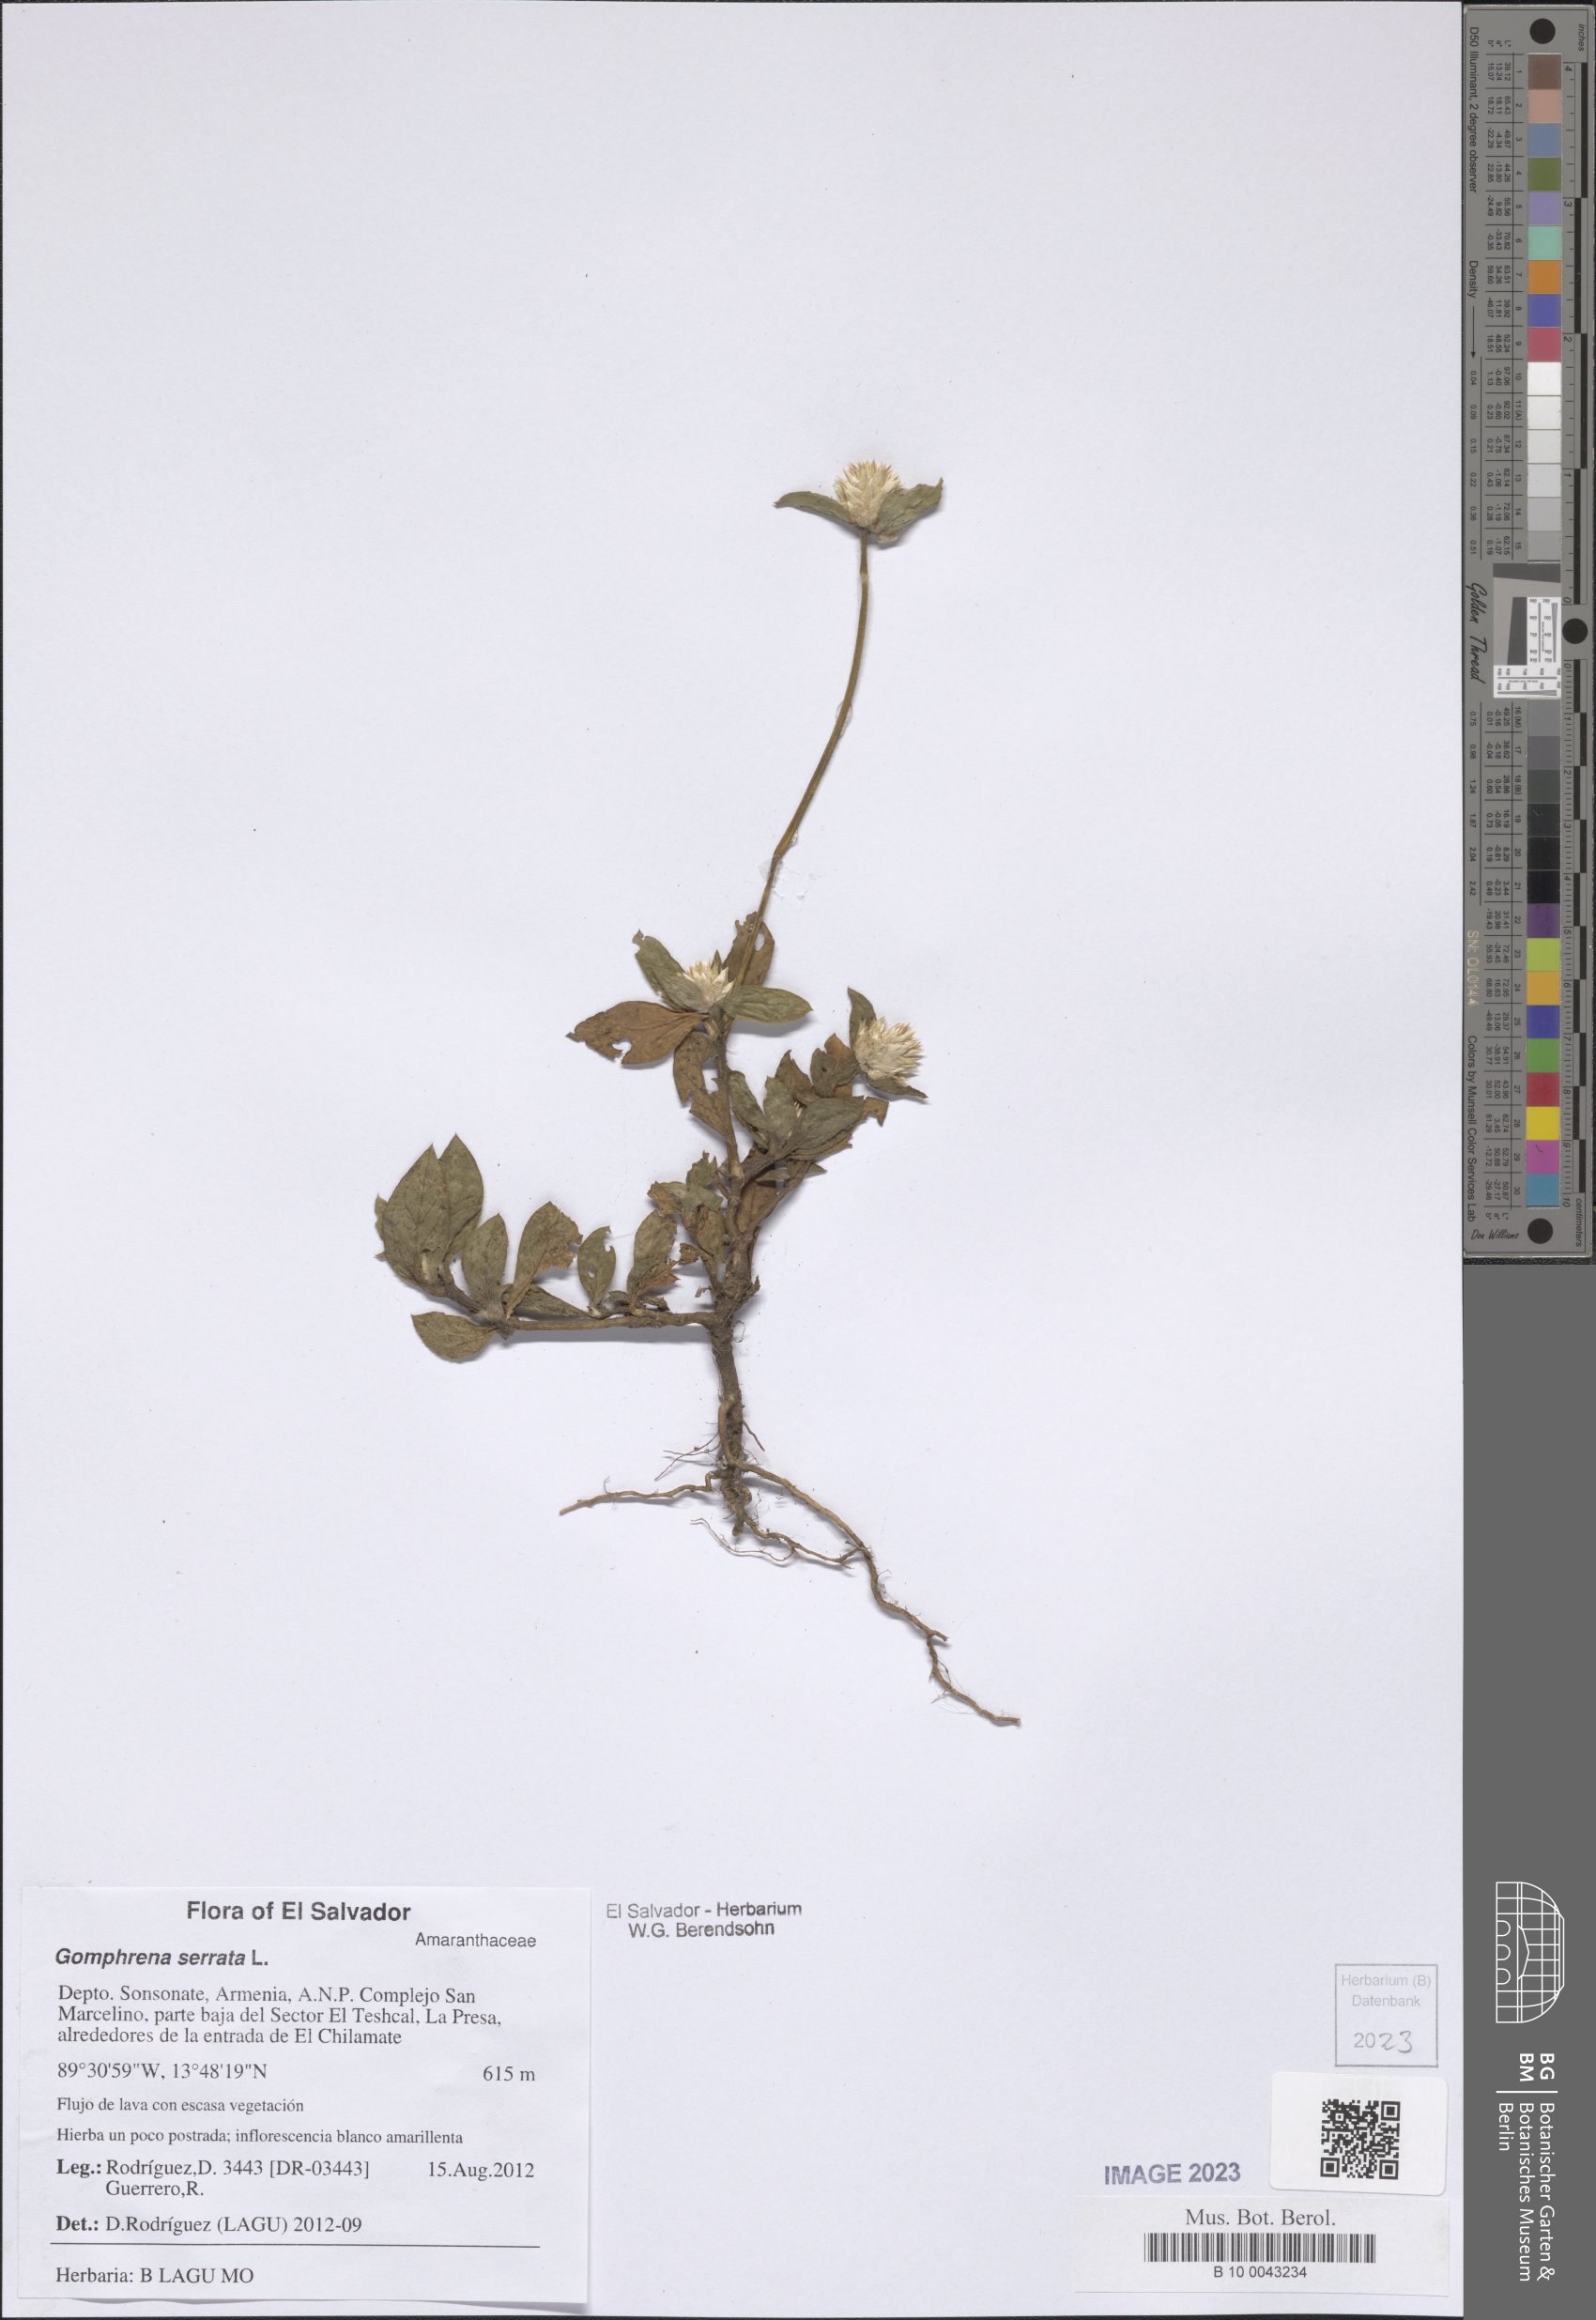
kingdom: Plantae
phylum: Tracheophyta
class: Magnoliopsida
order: Caryophyllales
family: Amaranthaceae
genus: Gomphrena
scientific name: Gomphrena serrata
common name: Arrasa con todo
